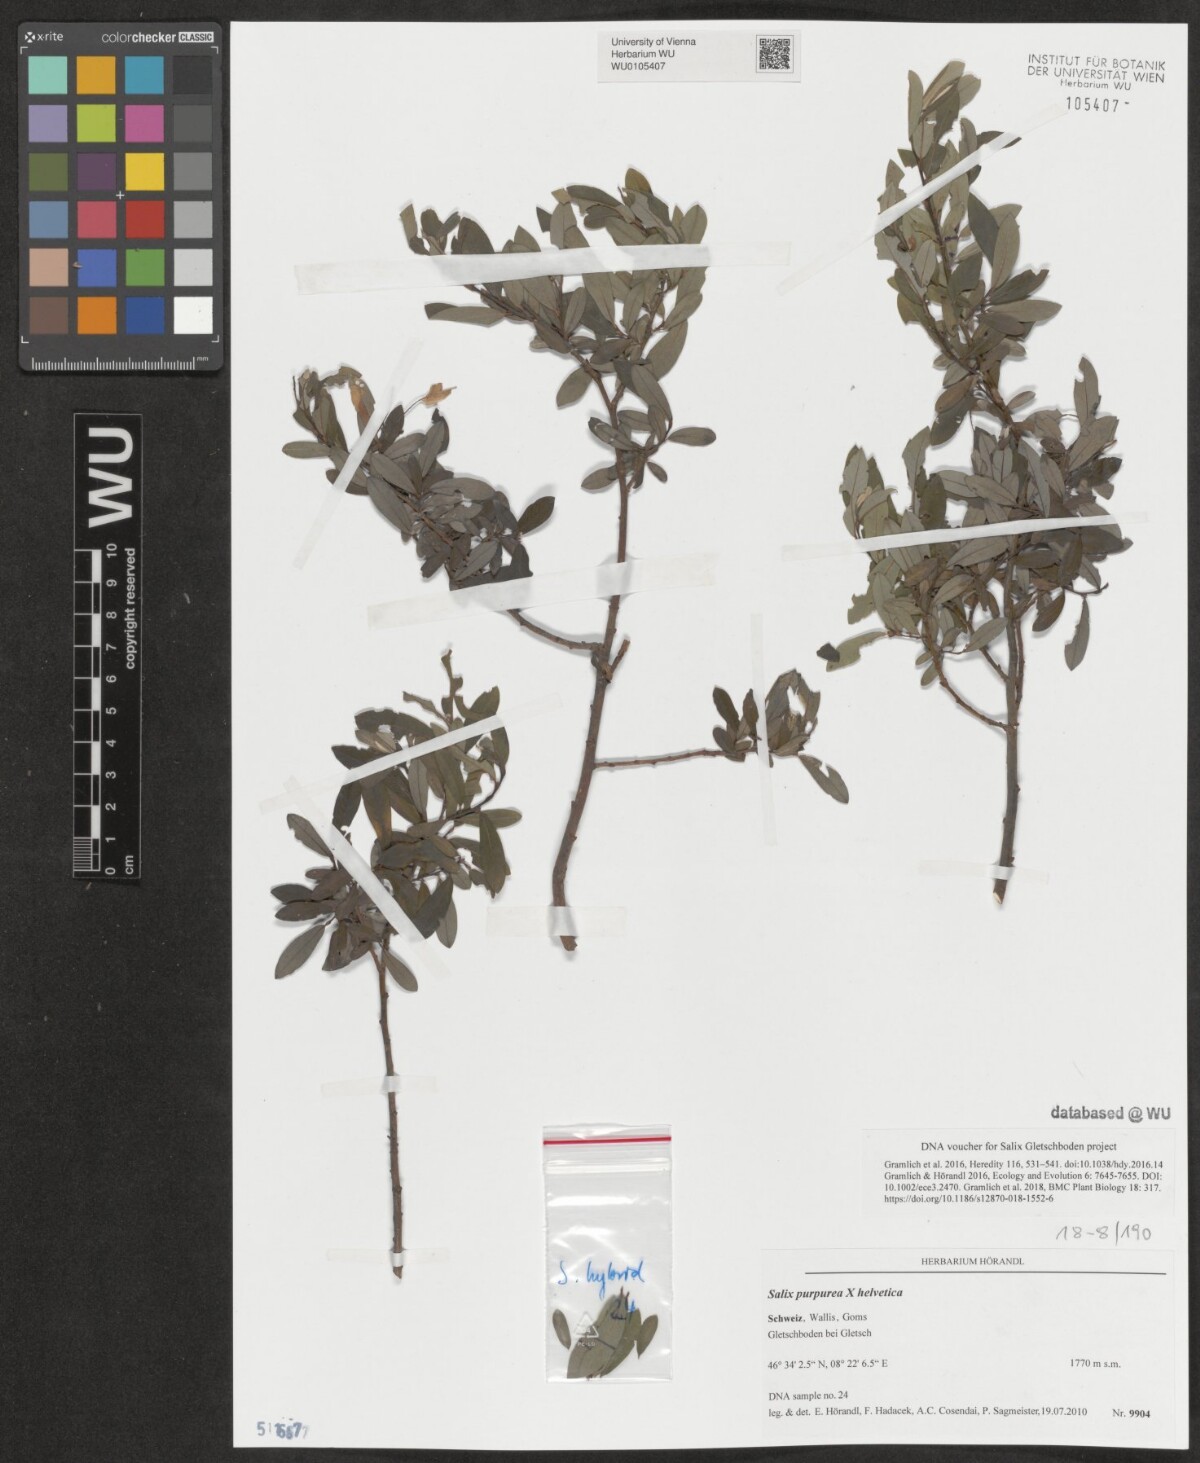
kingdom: Plantae
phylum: Tracheophyta
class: Magnoliopsida
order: Malpighiales
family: Salicaceae
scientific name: Salicaceae
